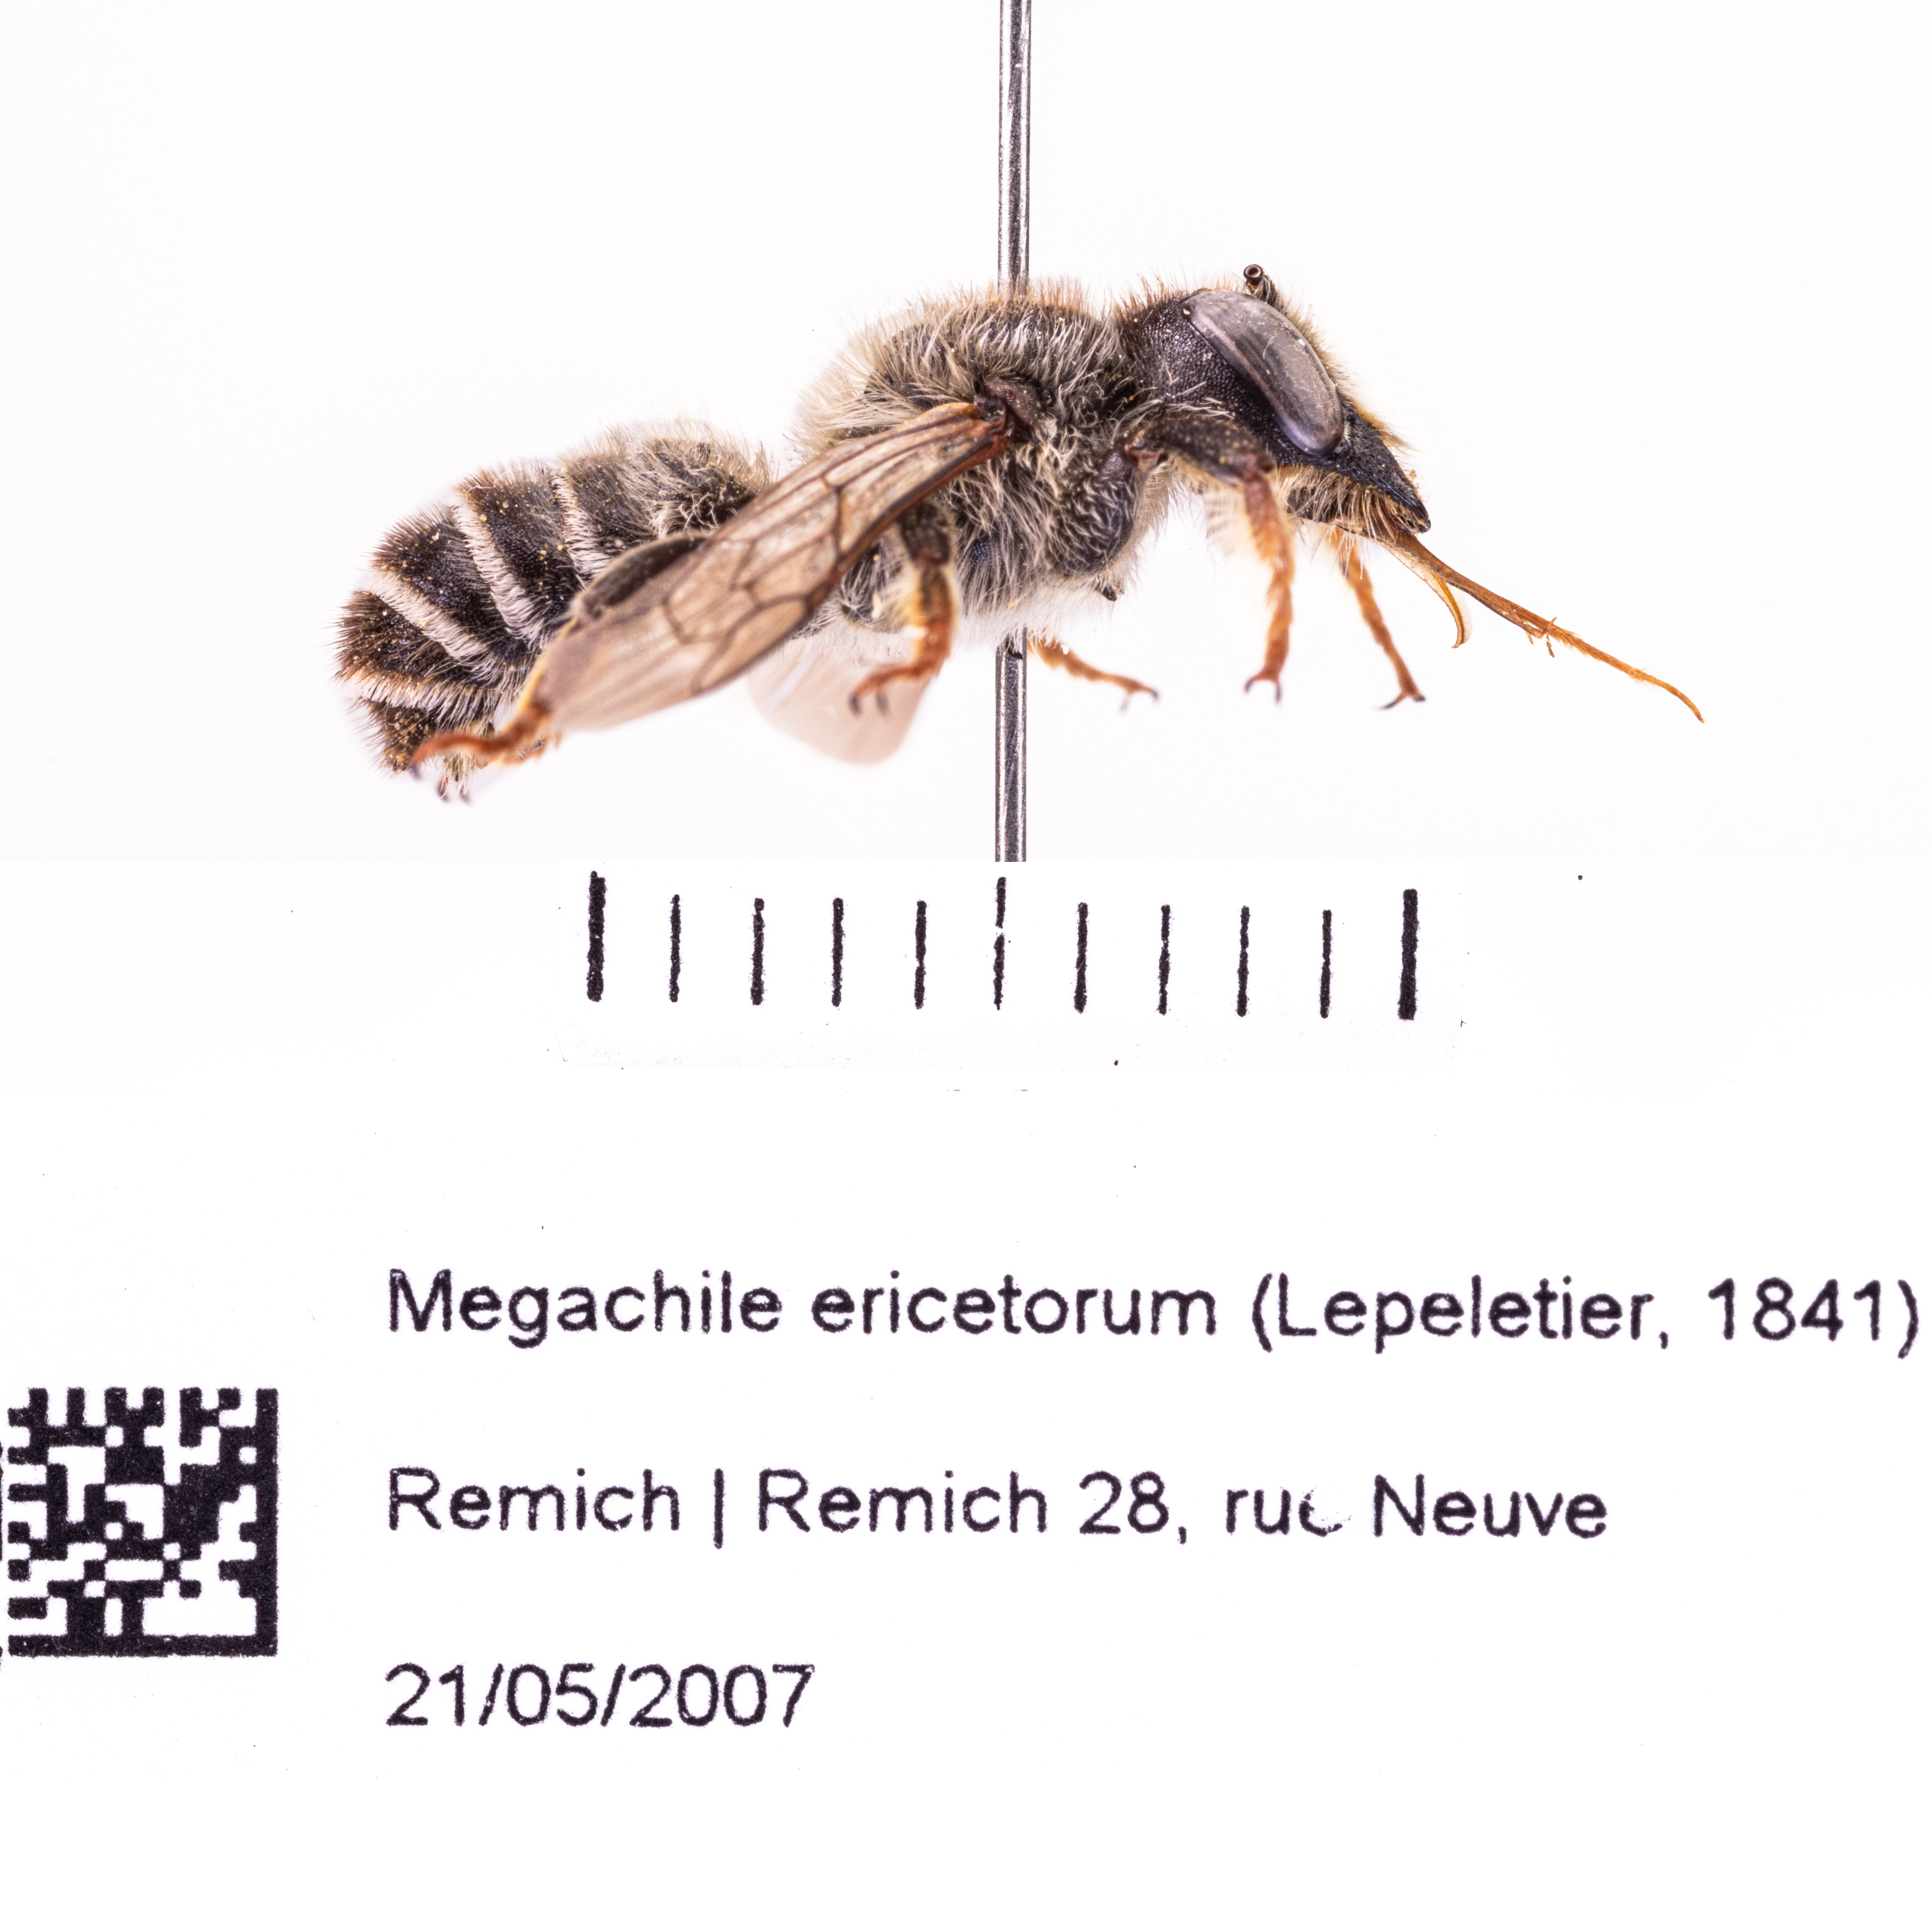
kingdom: Animalia
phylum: Arthropoda
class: Insecta
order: Hymenoptera
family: Megachilidae
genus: Megachile
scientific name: Megachile ericetorum
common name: Leafcutter bee
